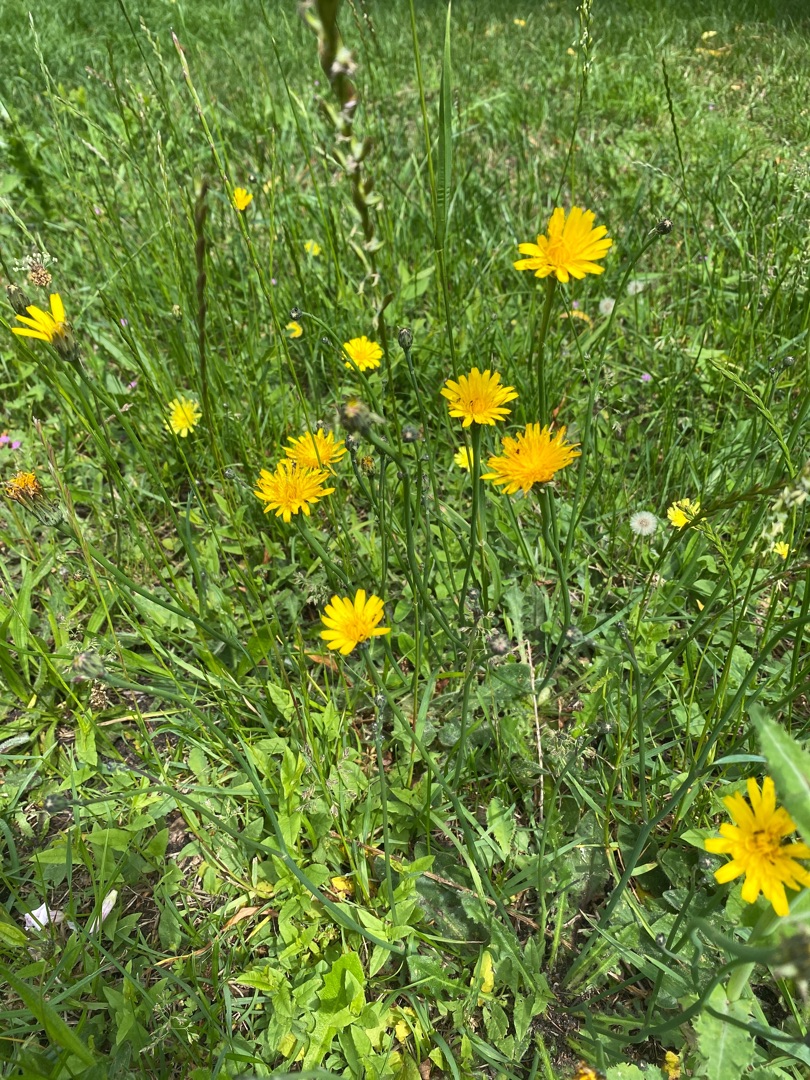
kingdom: Plantae
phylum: Tracheophyta
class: Magnoliopsida
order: Asterales
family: Asteraceae
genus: Hypochaeris
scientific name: Hypochaeris radicata
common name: Almindelig kongepen
